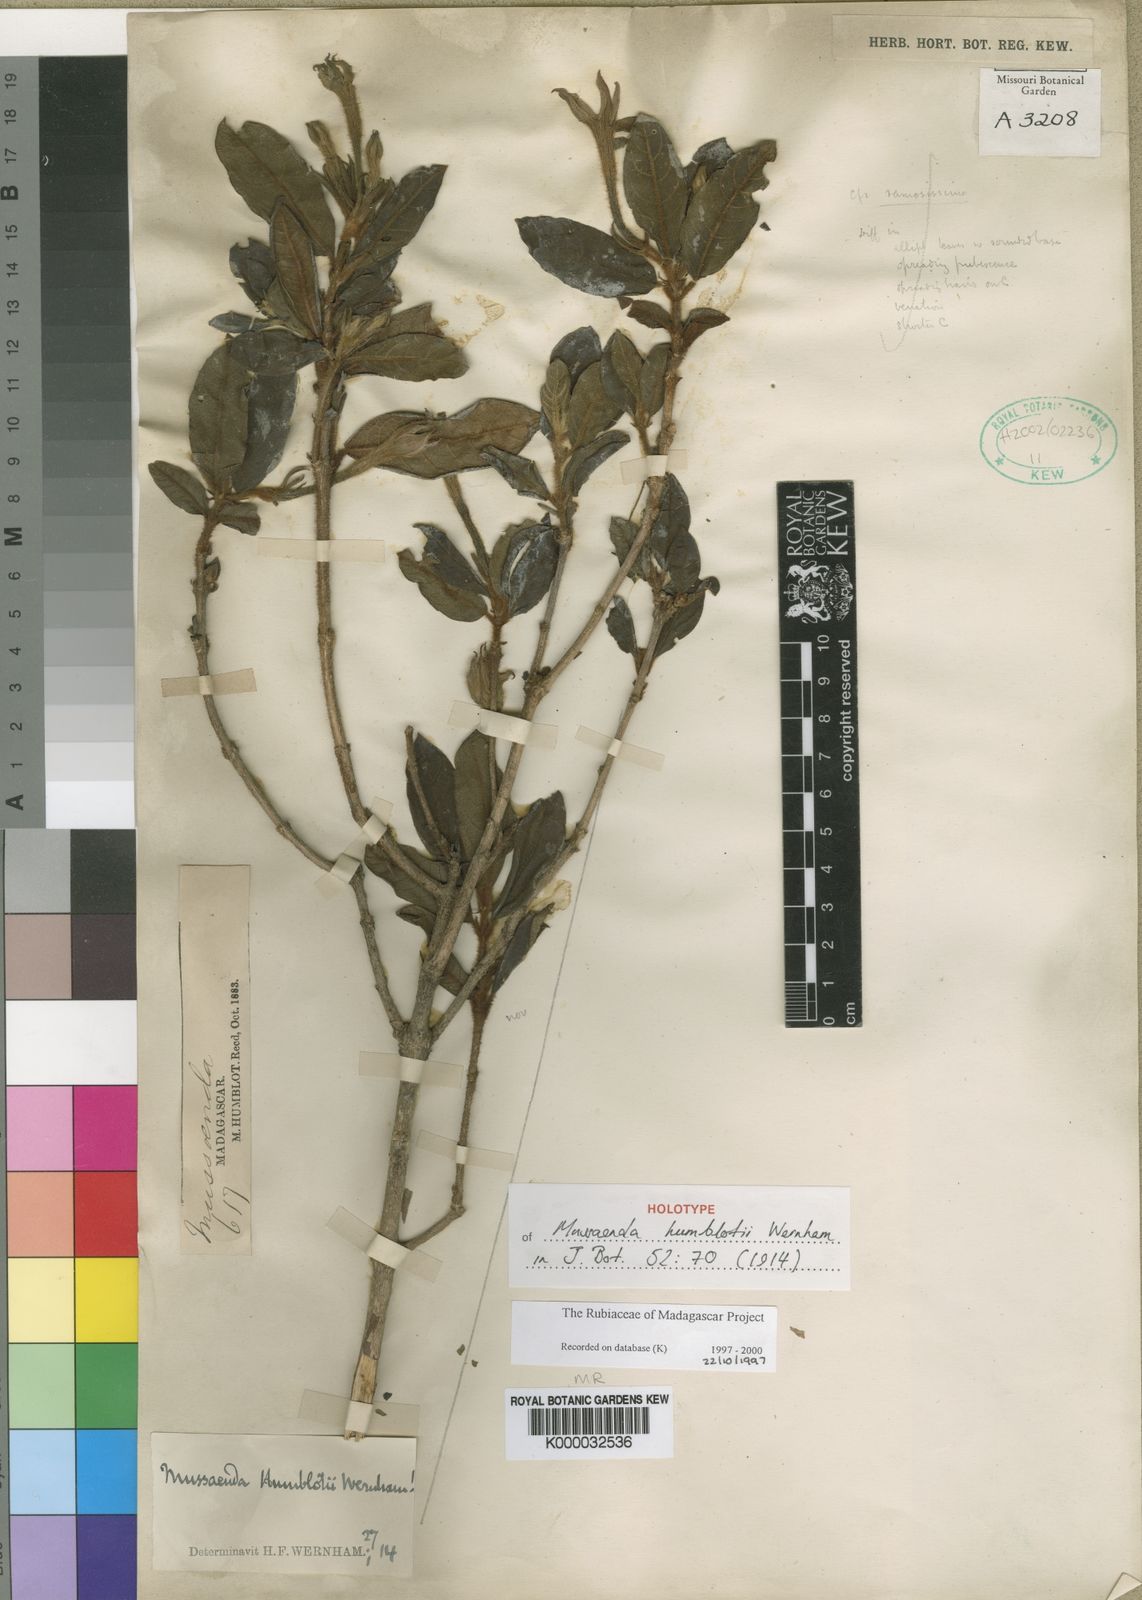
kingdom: Plantae
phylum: Tracheophyta
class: Magnoliopsida
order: Gentianales
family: Rubiaceae
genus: Bremeria
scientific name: Bremeria humblotii
